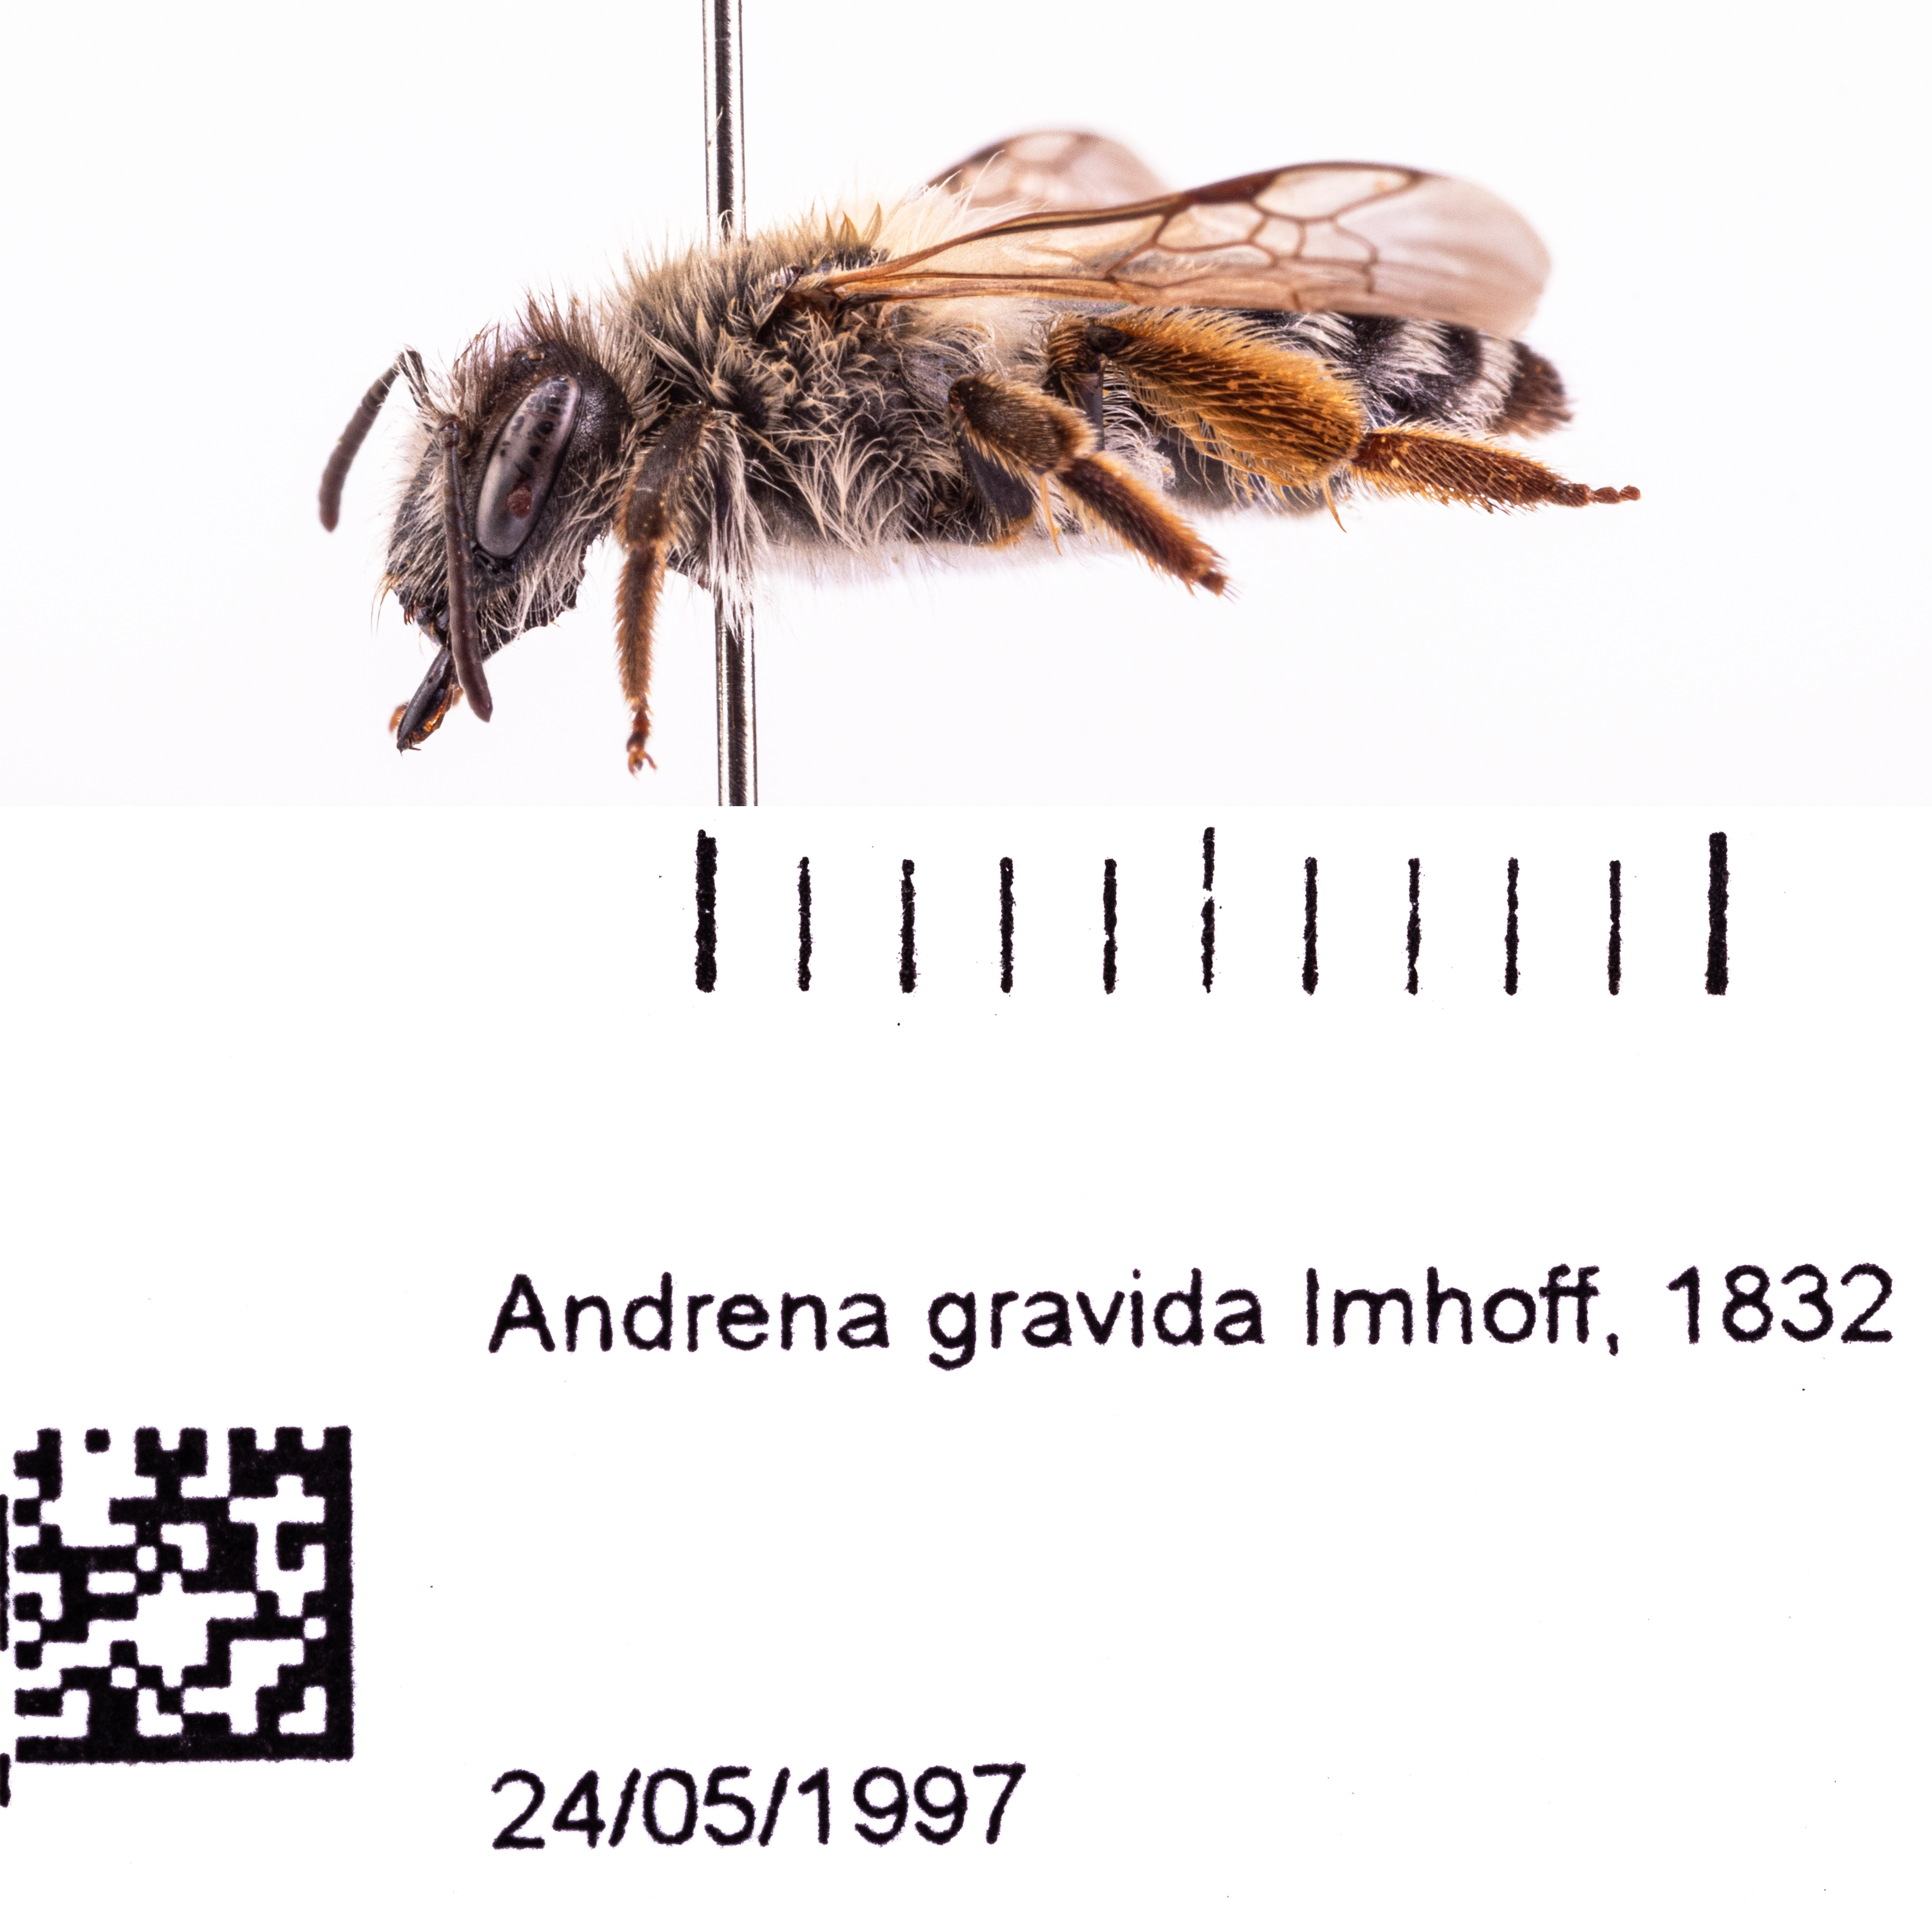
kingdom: Animalia
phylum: Arthropoda
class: Insecta
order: Hymenoptera
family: Andrenidae
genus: Andrena
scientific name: Andrena gravida
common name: White-bellied mining bee
